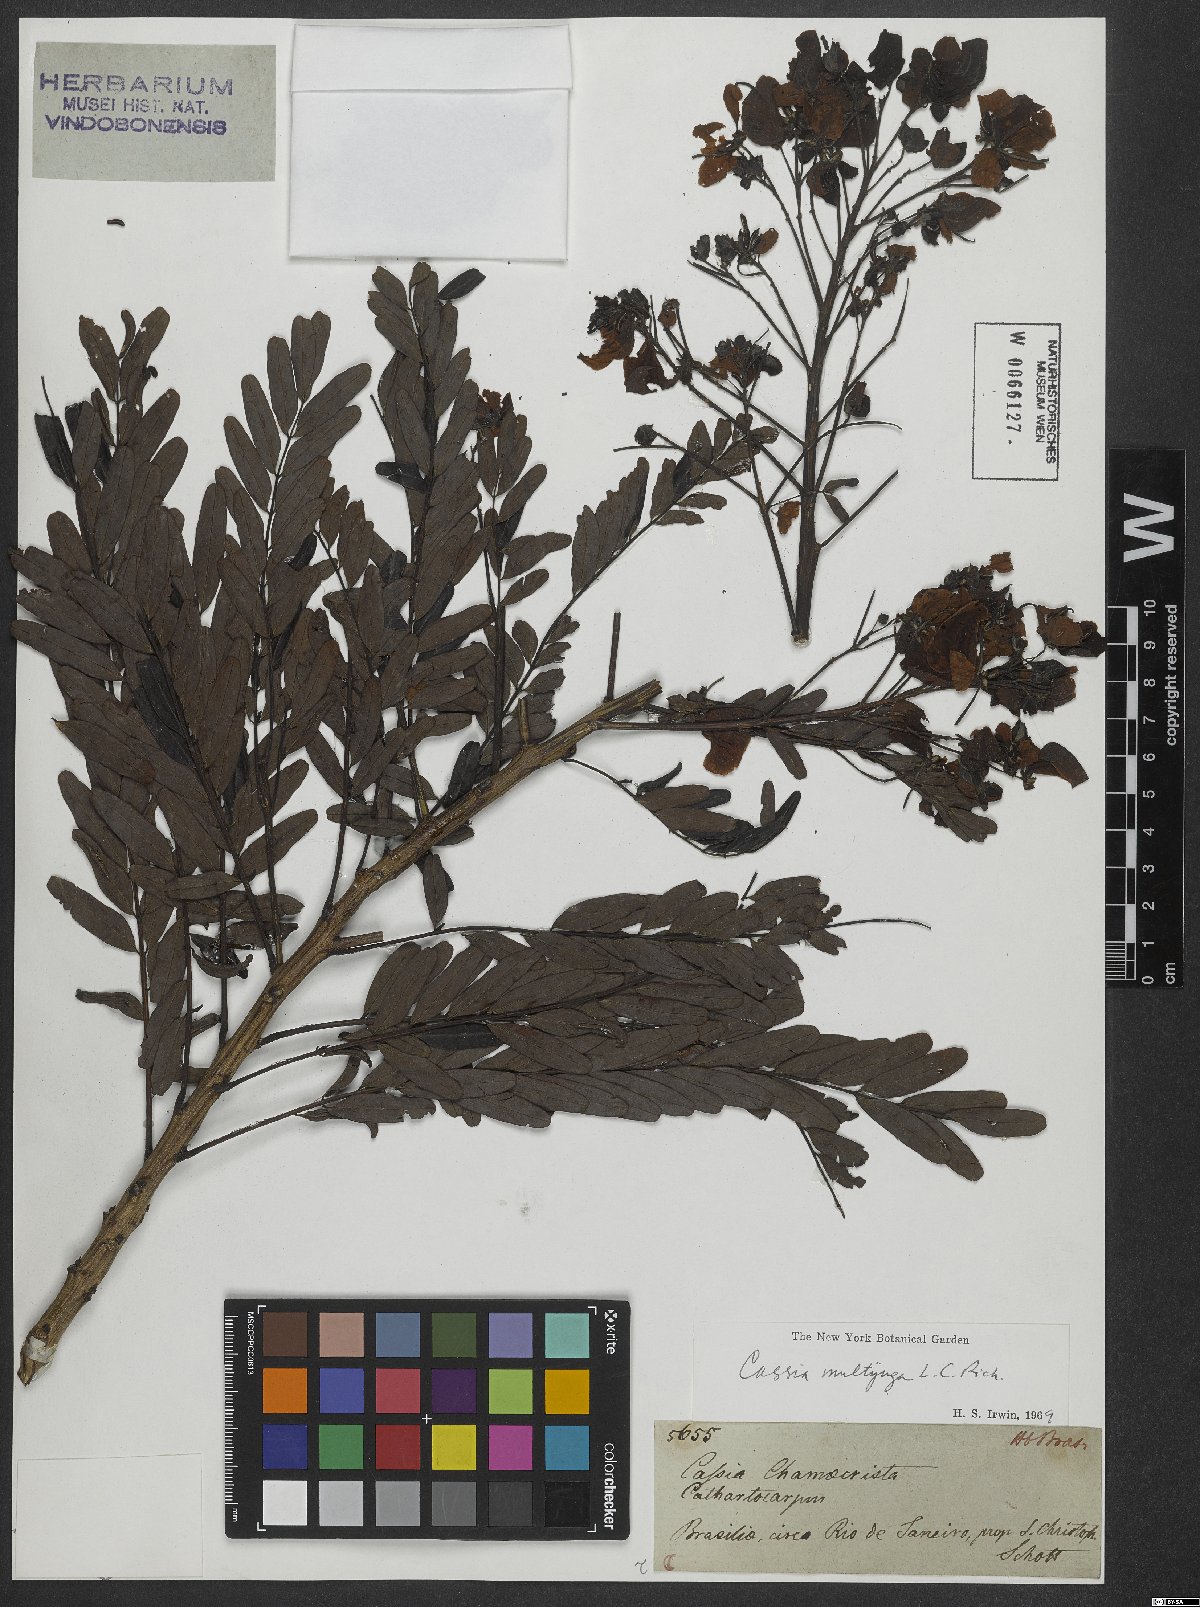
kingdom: Plantae
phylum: Tracheophyta
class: Magnoliopsida
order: Fabales
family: Fabaceae
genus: Senna
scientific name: Senna multijuga
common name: False sicklepod
